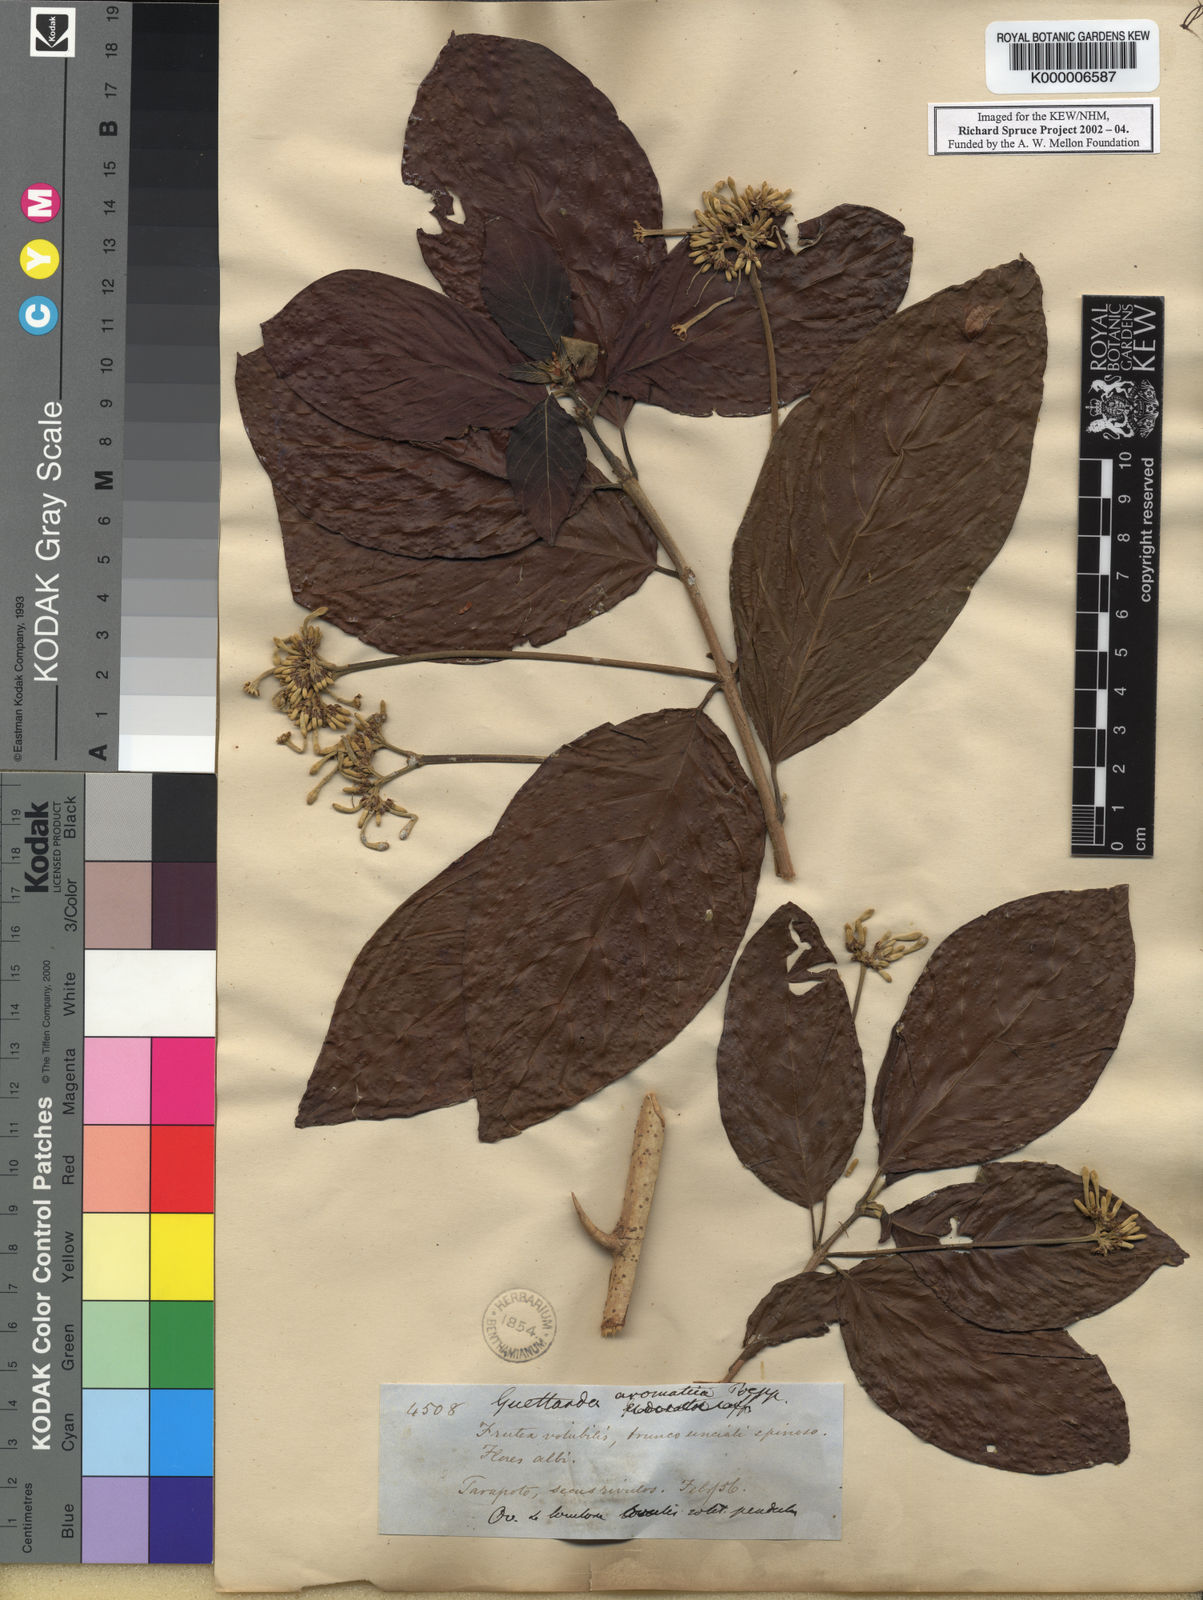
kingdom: Plantae
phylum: Tracheophyta
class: Magnoliopsida
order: Gentianales
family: Rubiaceae
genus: Guettarda
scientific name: Guettarda aromatica
